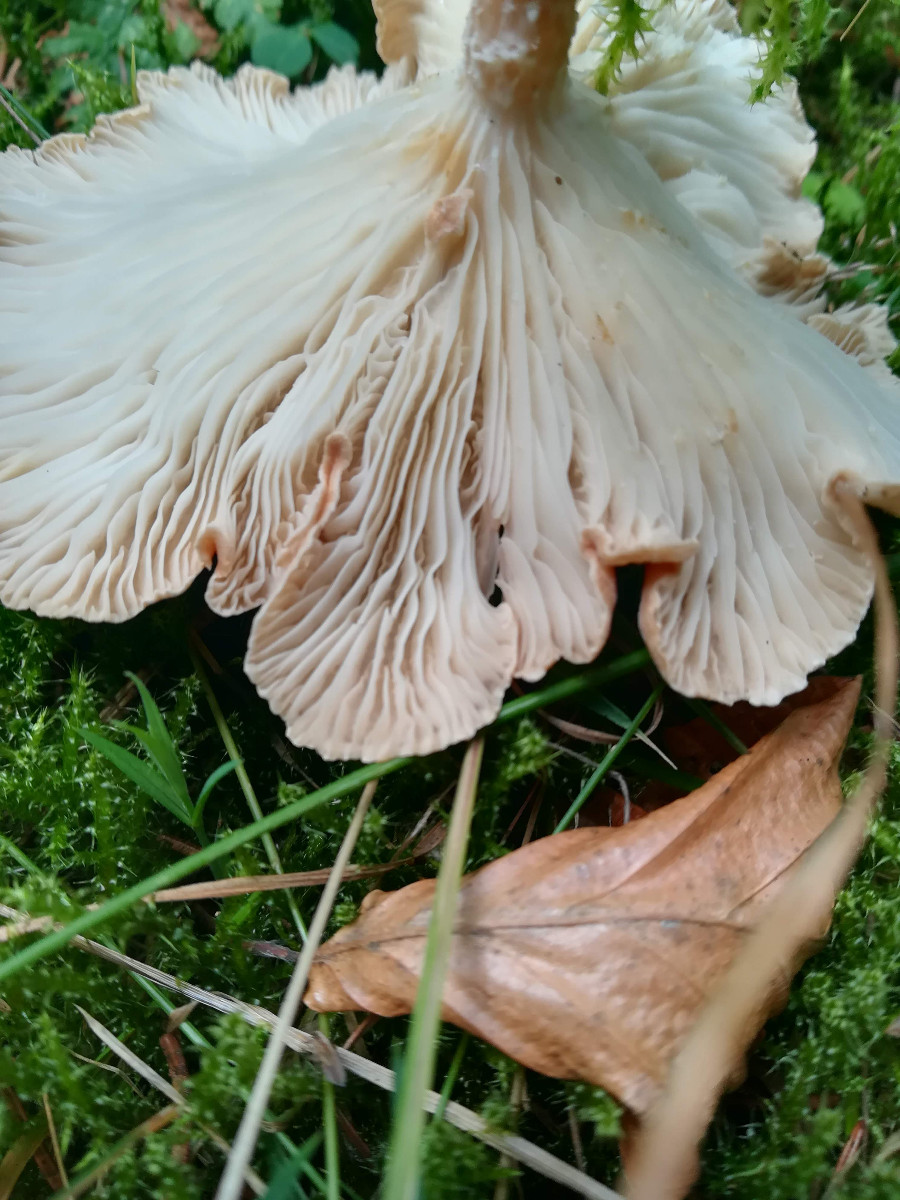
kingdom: Fungi
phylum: Basidiomycota
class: Agaricomycetes
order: Agaricales
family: Tricholomataceae
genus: Infundibulicybe
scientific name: Infundibulicybe squamulosa
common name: småskællet tragthat
